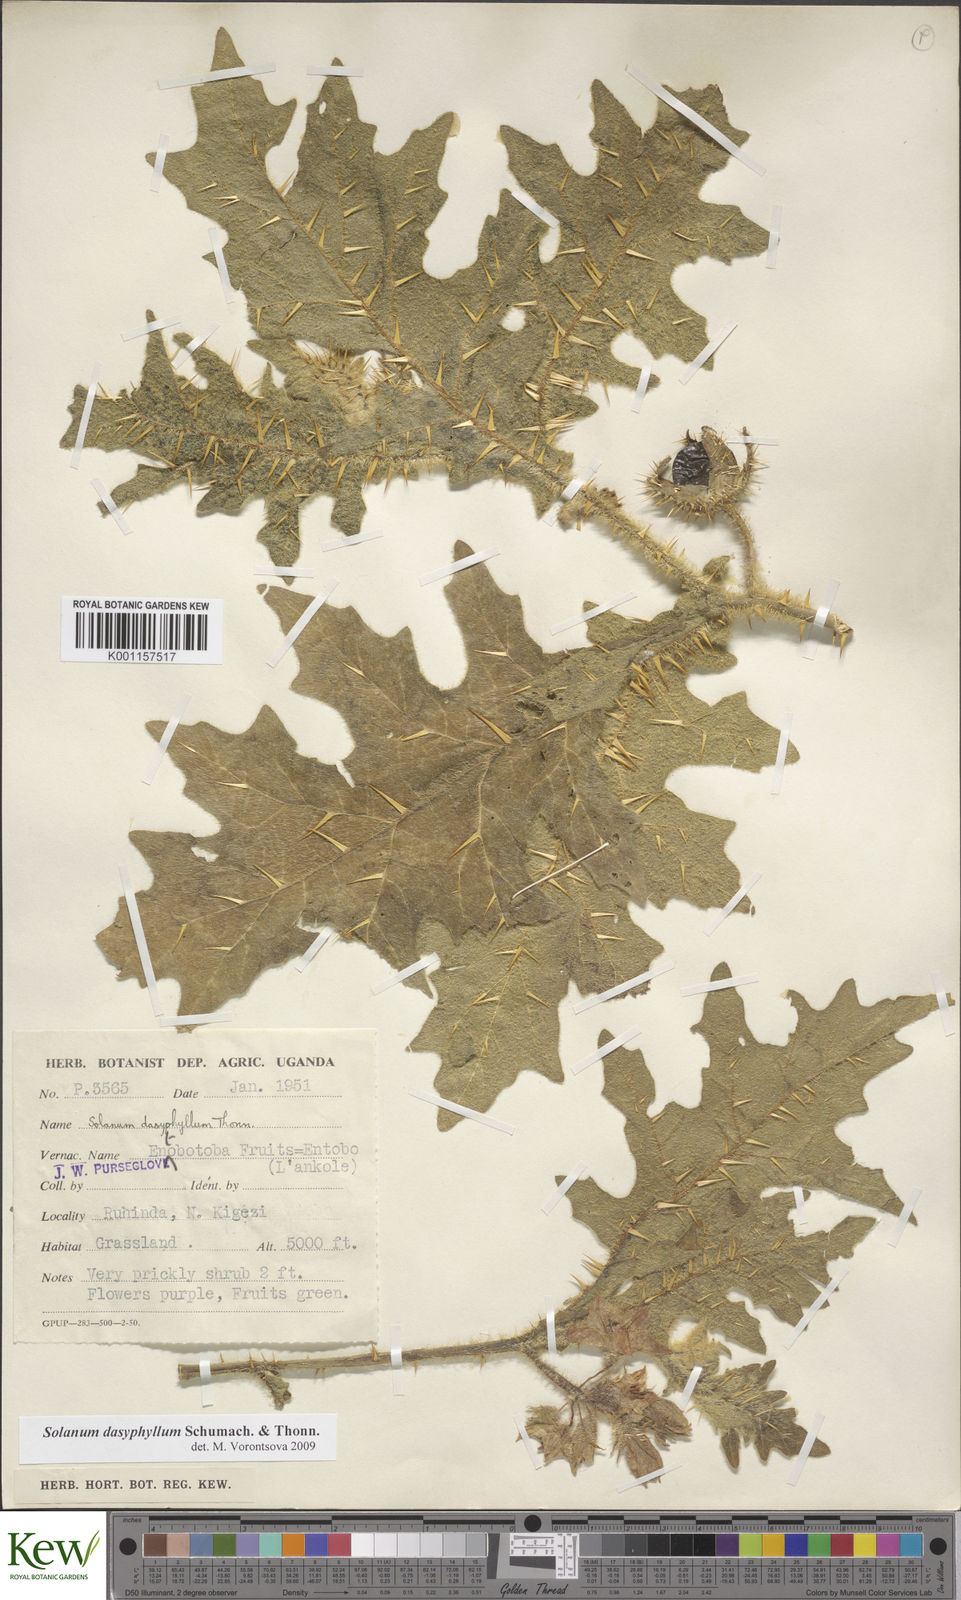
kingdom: Plantae
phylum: Tracheophyta
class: Magnoliopsida
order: Solanales
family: Solanaceae
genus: Solanum
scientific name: Solanum dasyphyllum
